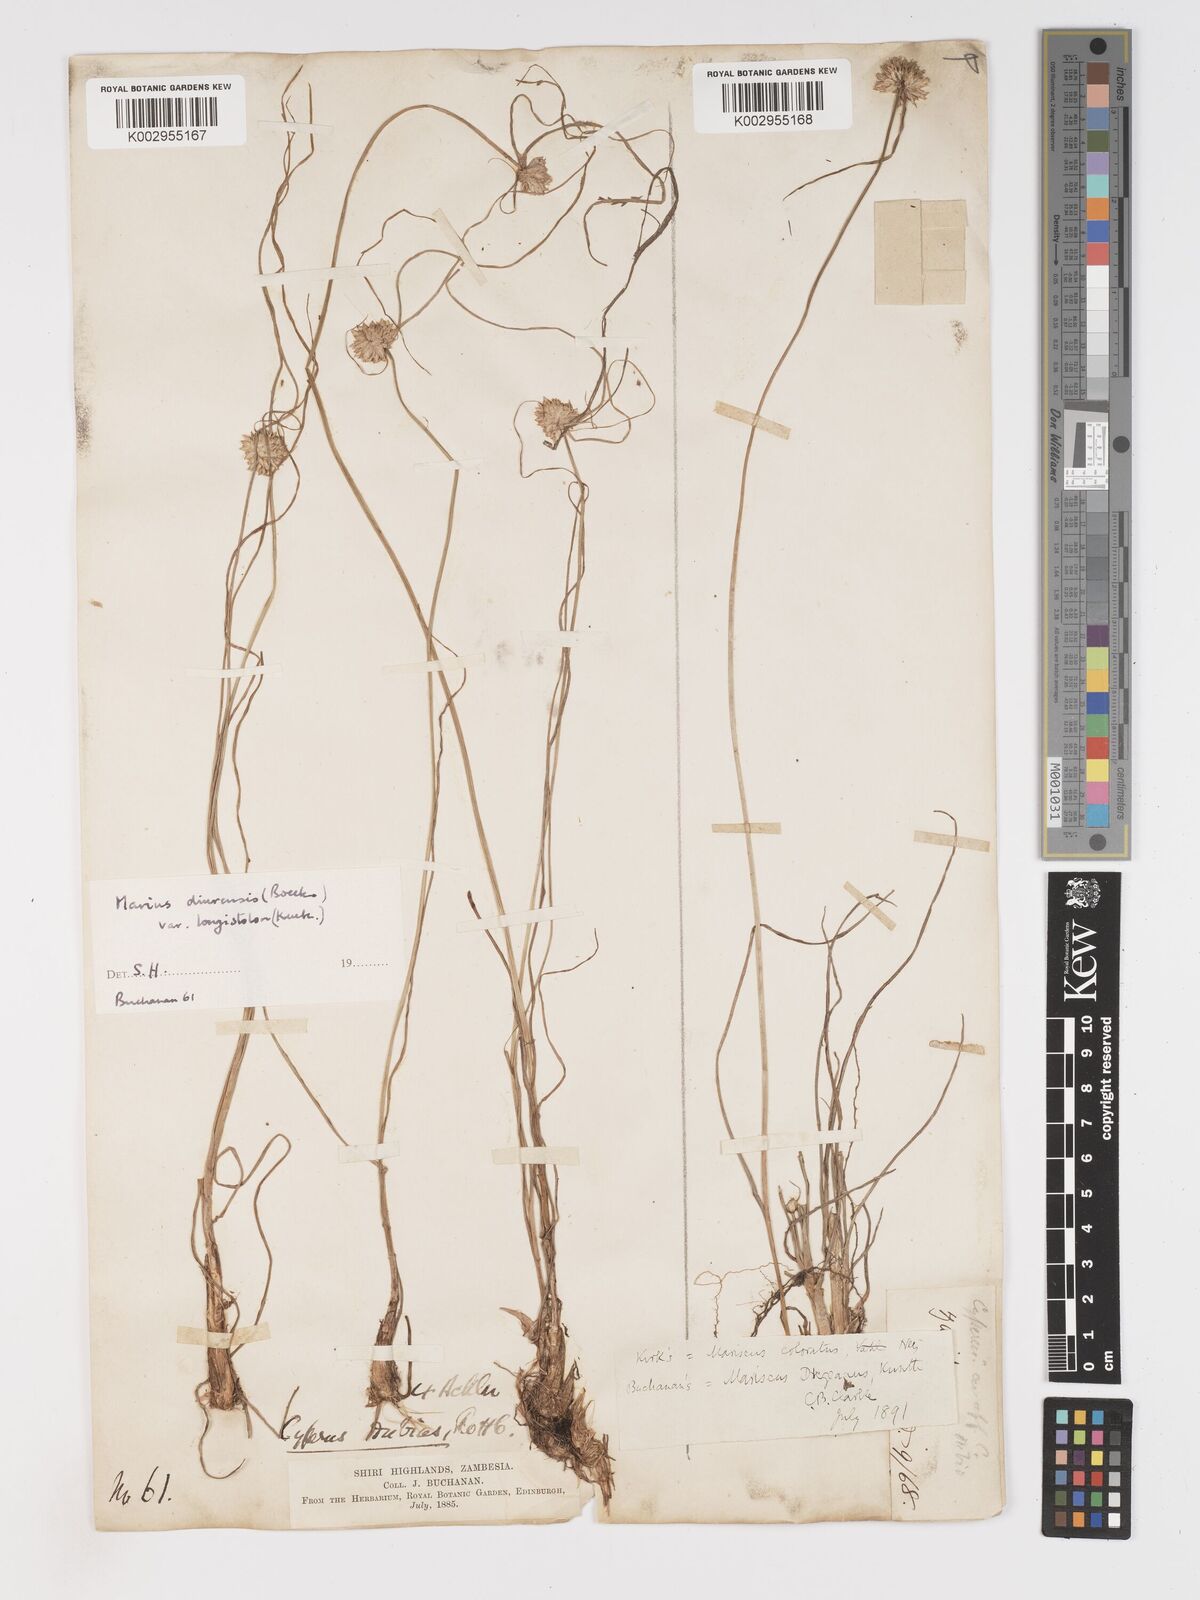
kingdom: Plantae
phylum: Tracheophyta
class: Liliopsida
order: Poales
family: Cyperaceae
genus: Cyperus
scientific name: Cyperus dubius
